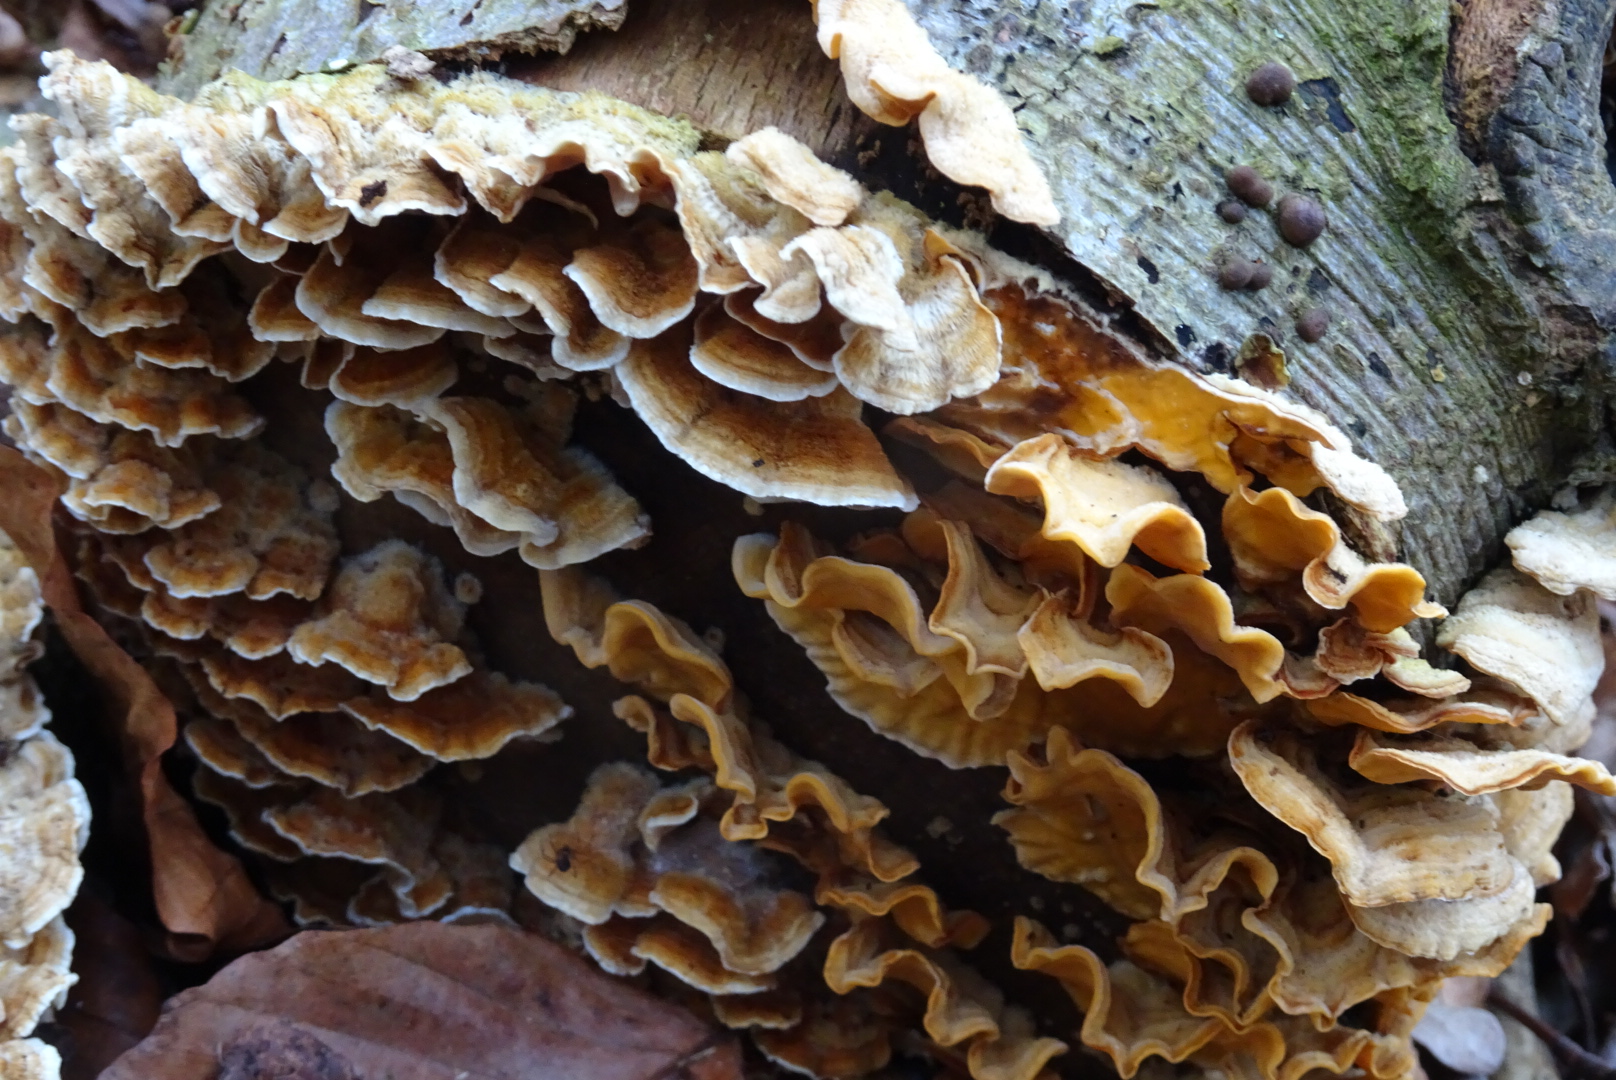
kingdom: Fungi
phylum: Basidiomycota
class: Agaricomycetes
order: Russulales
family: Stereaceae
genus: Stereum
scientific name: Stereum hirsutum
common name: håret lædersvamp
